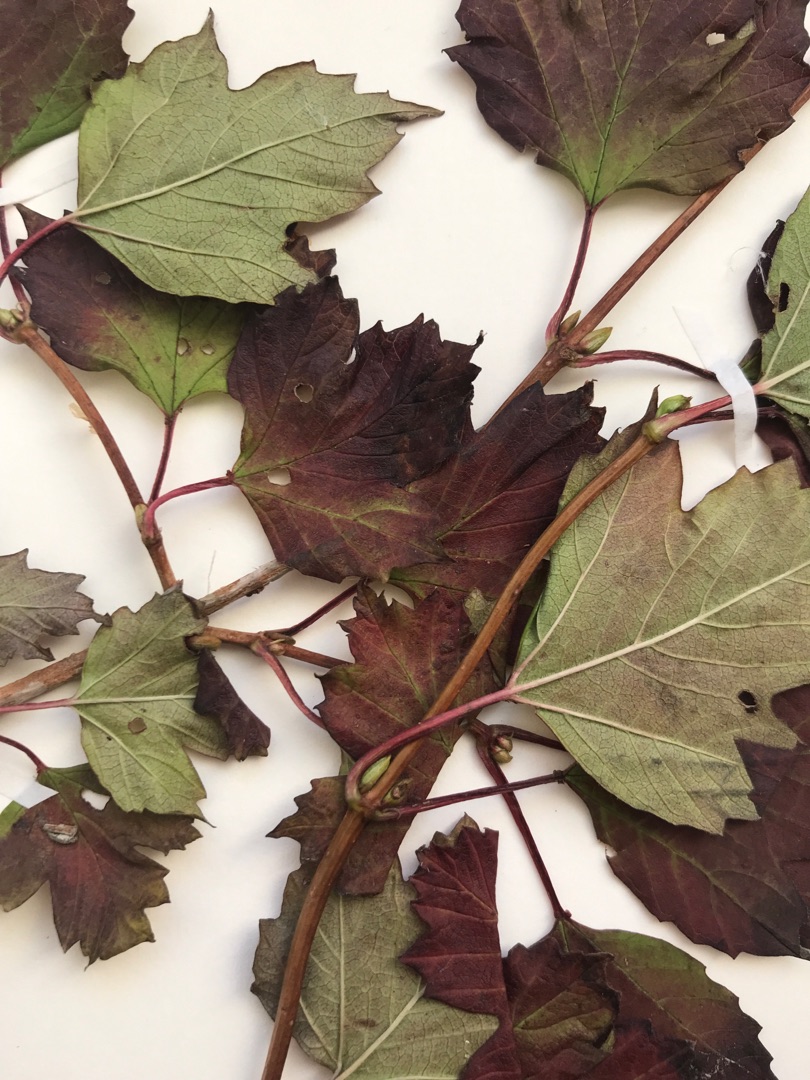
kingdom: Plantae
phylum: Tracheophyta
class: Magnoliopsida
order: Dipsacales
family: Viburnaceae
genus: Viburnum
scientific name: Viburnum opulus
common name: Kvalkved
